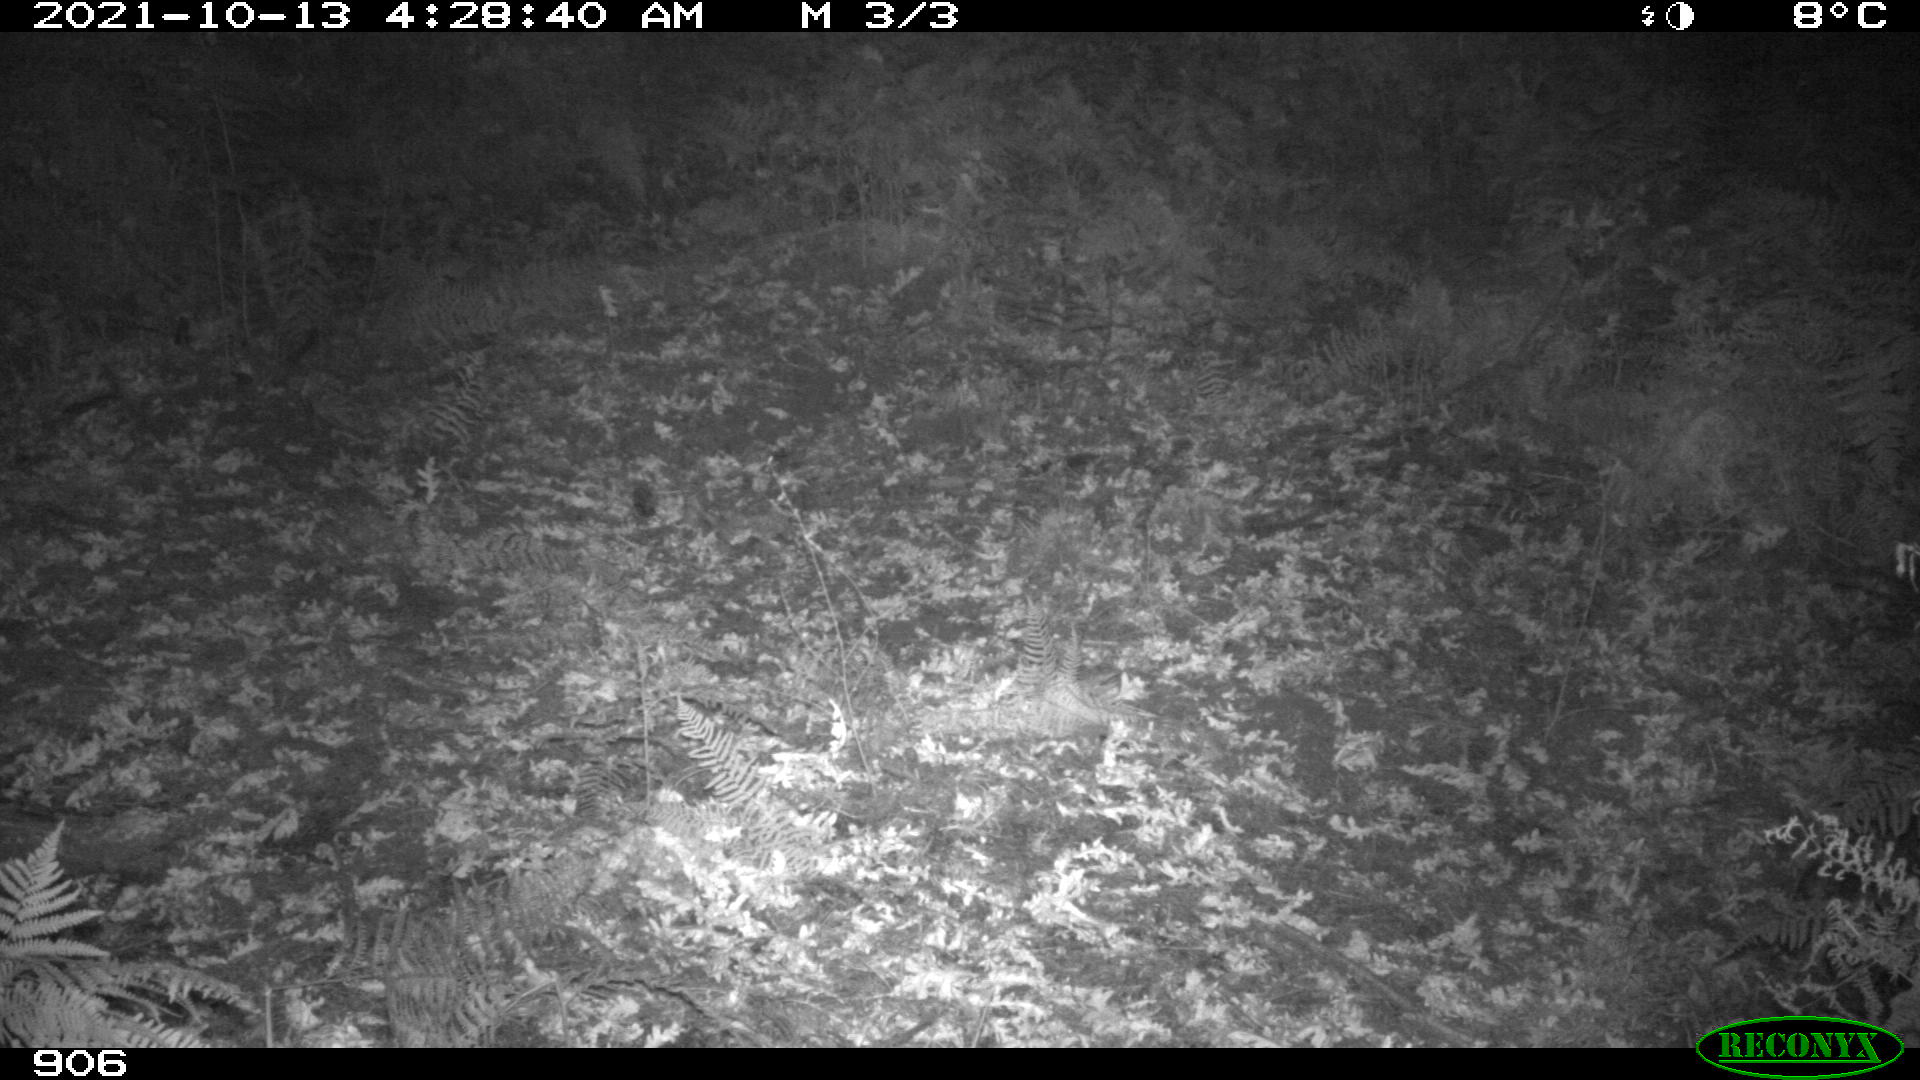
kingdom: Animalia
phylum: Chordata
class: Mammalia
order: Artiodactyla
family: Cervidae
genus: Capreolus
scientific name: Capreolus capreolus
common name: Western roe deer
